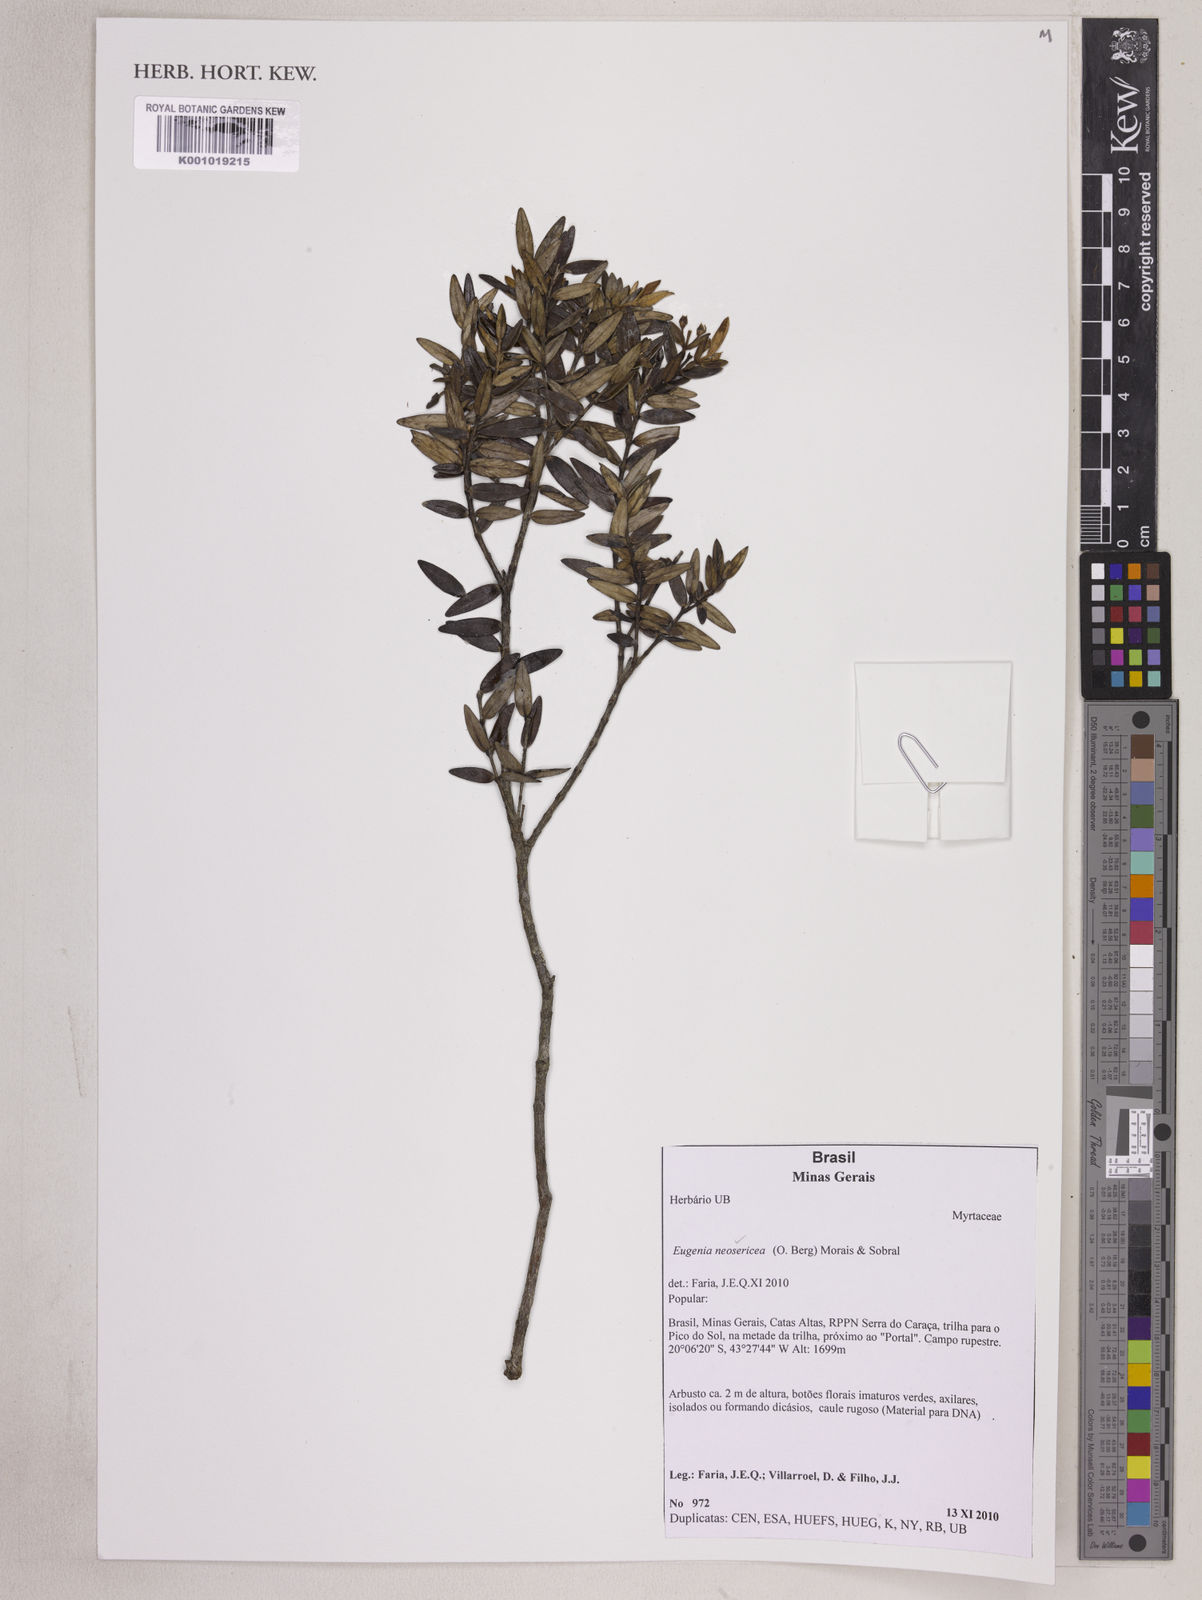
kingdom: Plantae
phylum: Tracheophyta
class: Magnoliopsida
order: Myrtales
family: Myrtaceae
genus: Myrcia
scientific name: Myrcia neosericea
